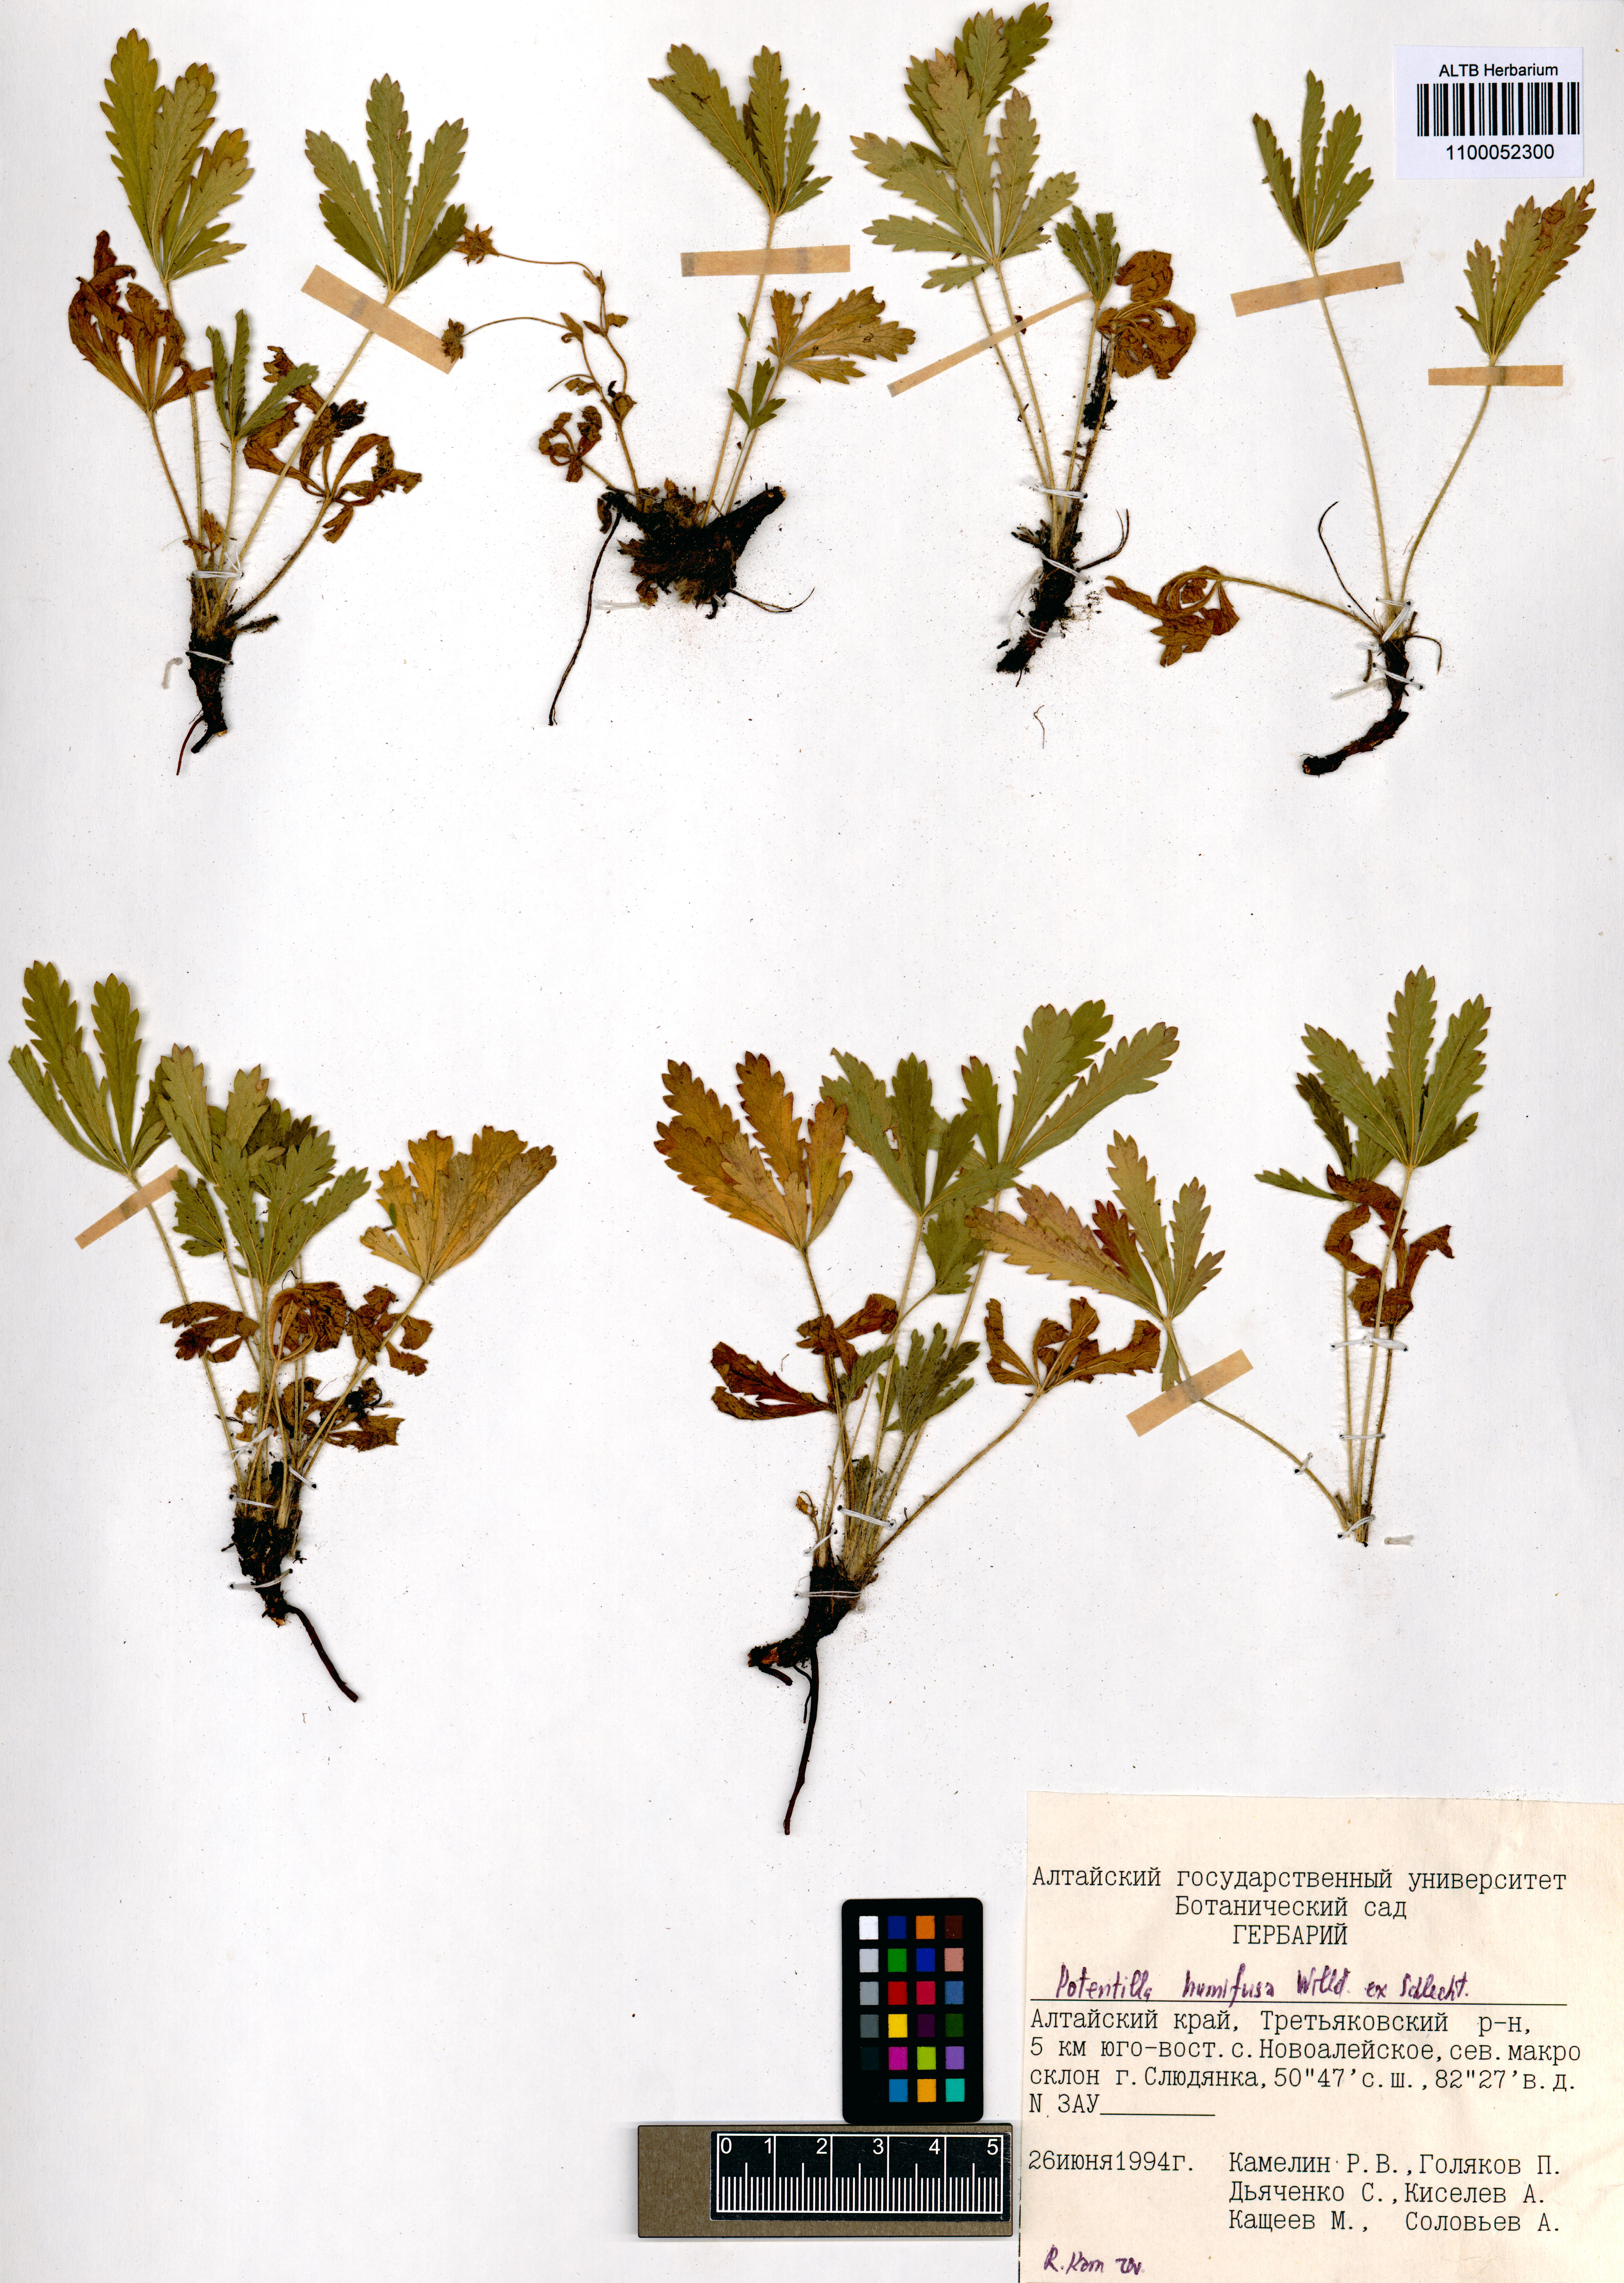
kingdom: Plantae
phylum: Tracheophyta
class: Magnoliopsida
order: Rosales
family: Rosaceae
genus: Potentilla
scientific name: Potentilla humifusa
